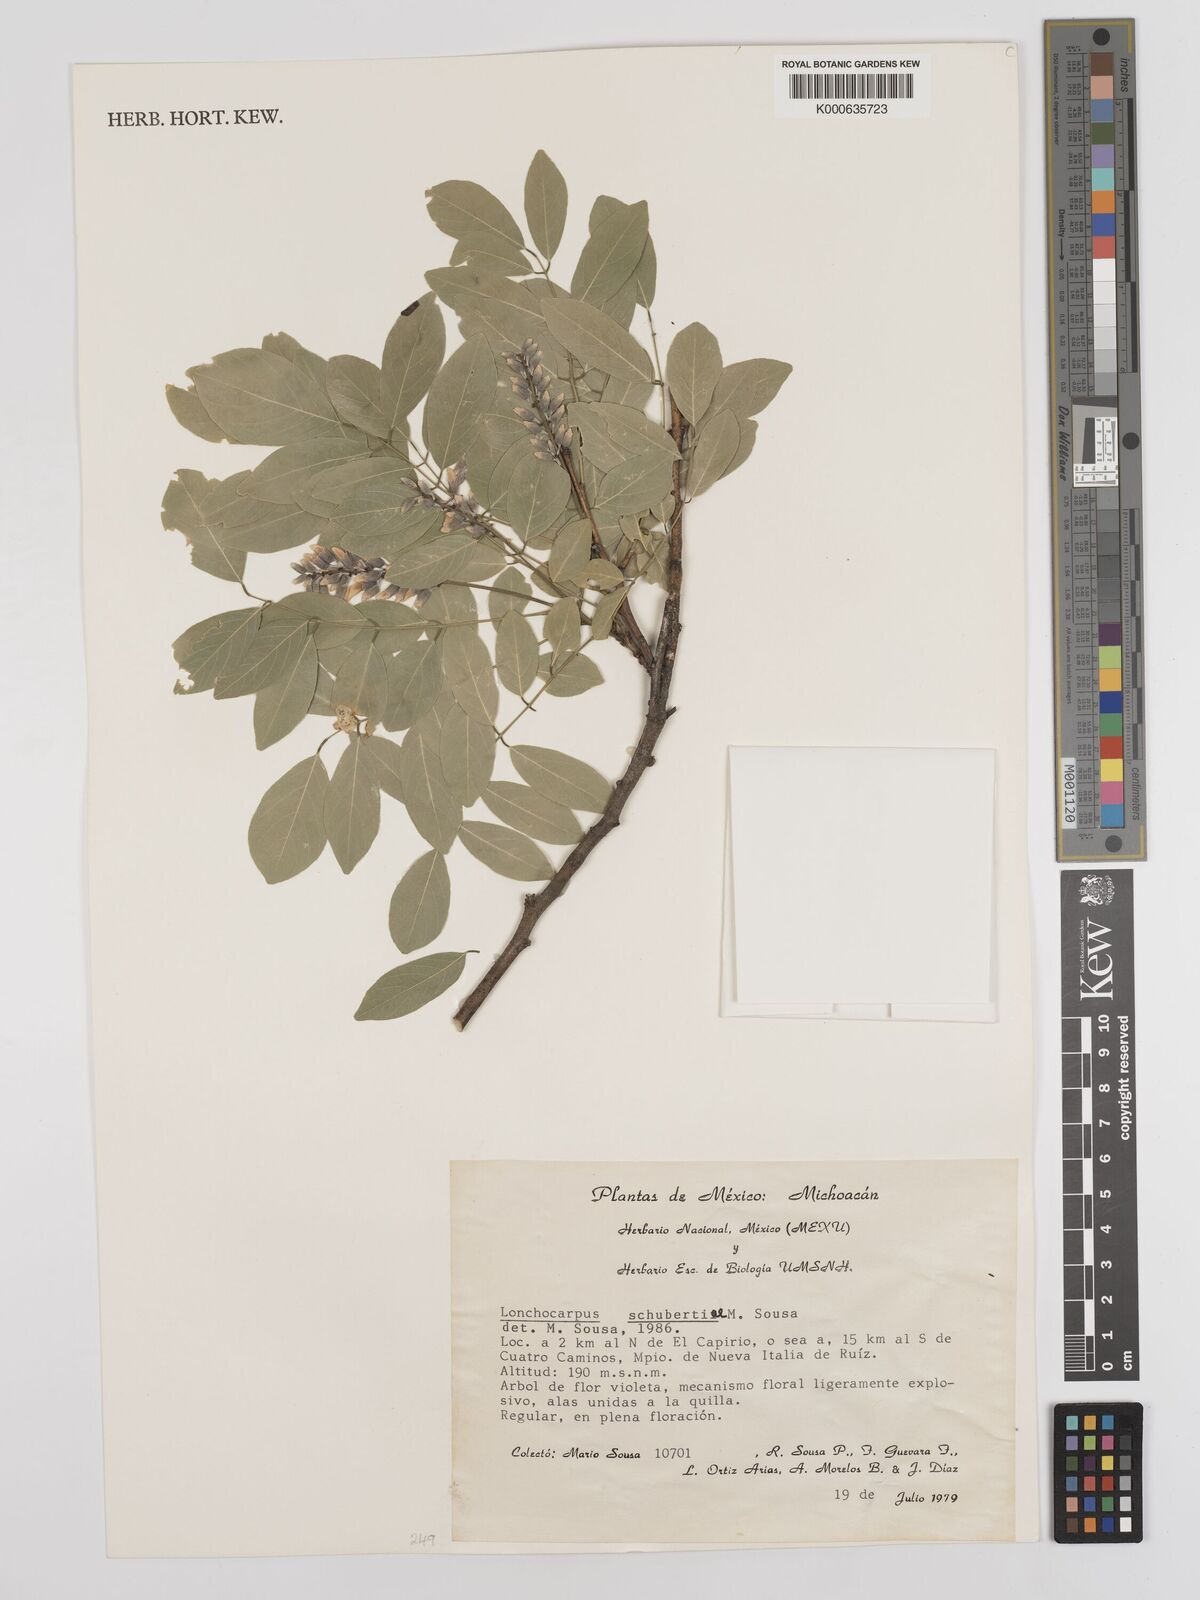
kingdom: Plantae
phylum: Tracheophyta
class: Magnoliopsida
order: Fabales
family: Fabaceae
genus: Lonchocarpus
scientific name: Lonchocarpus schubertiae
